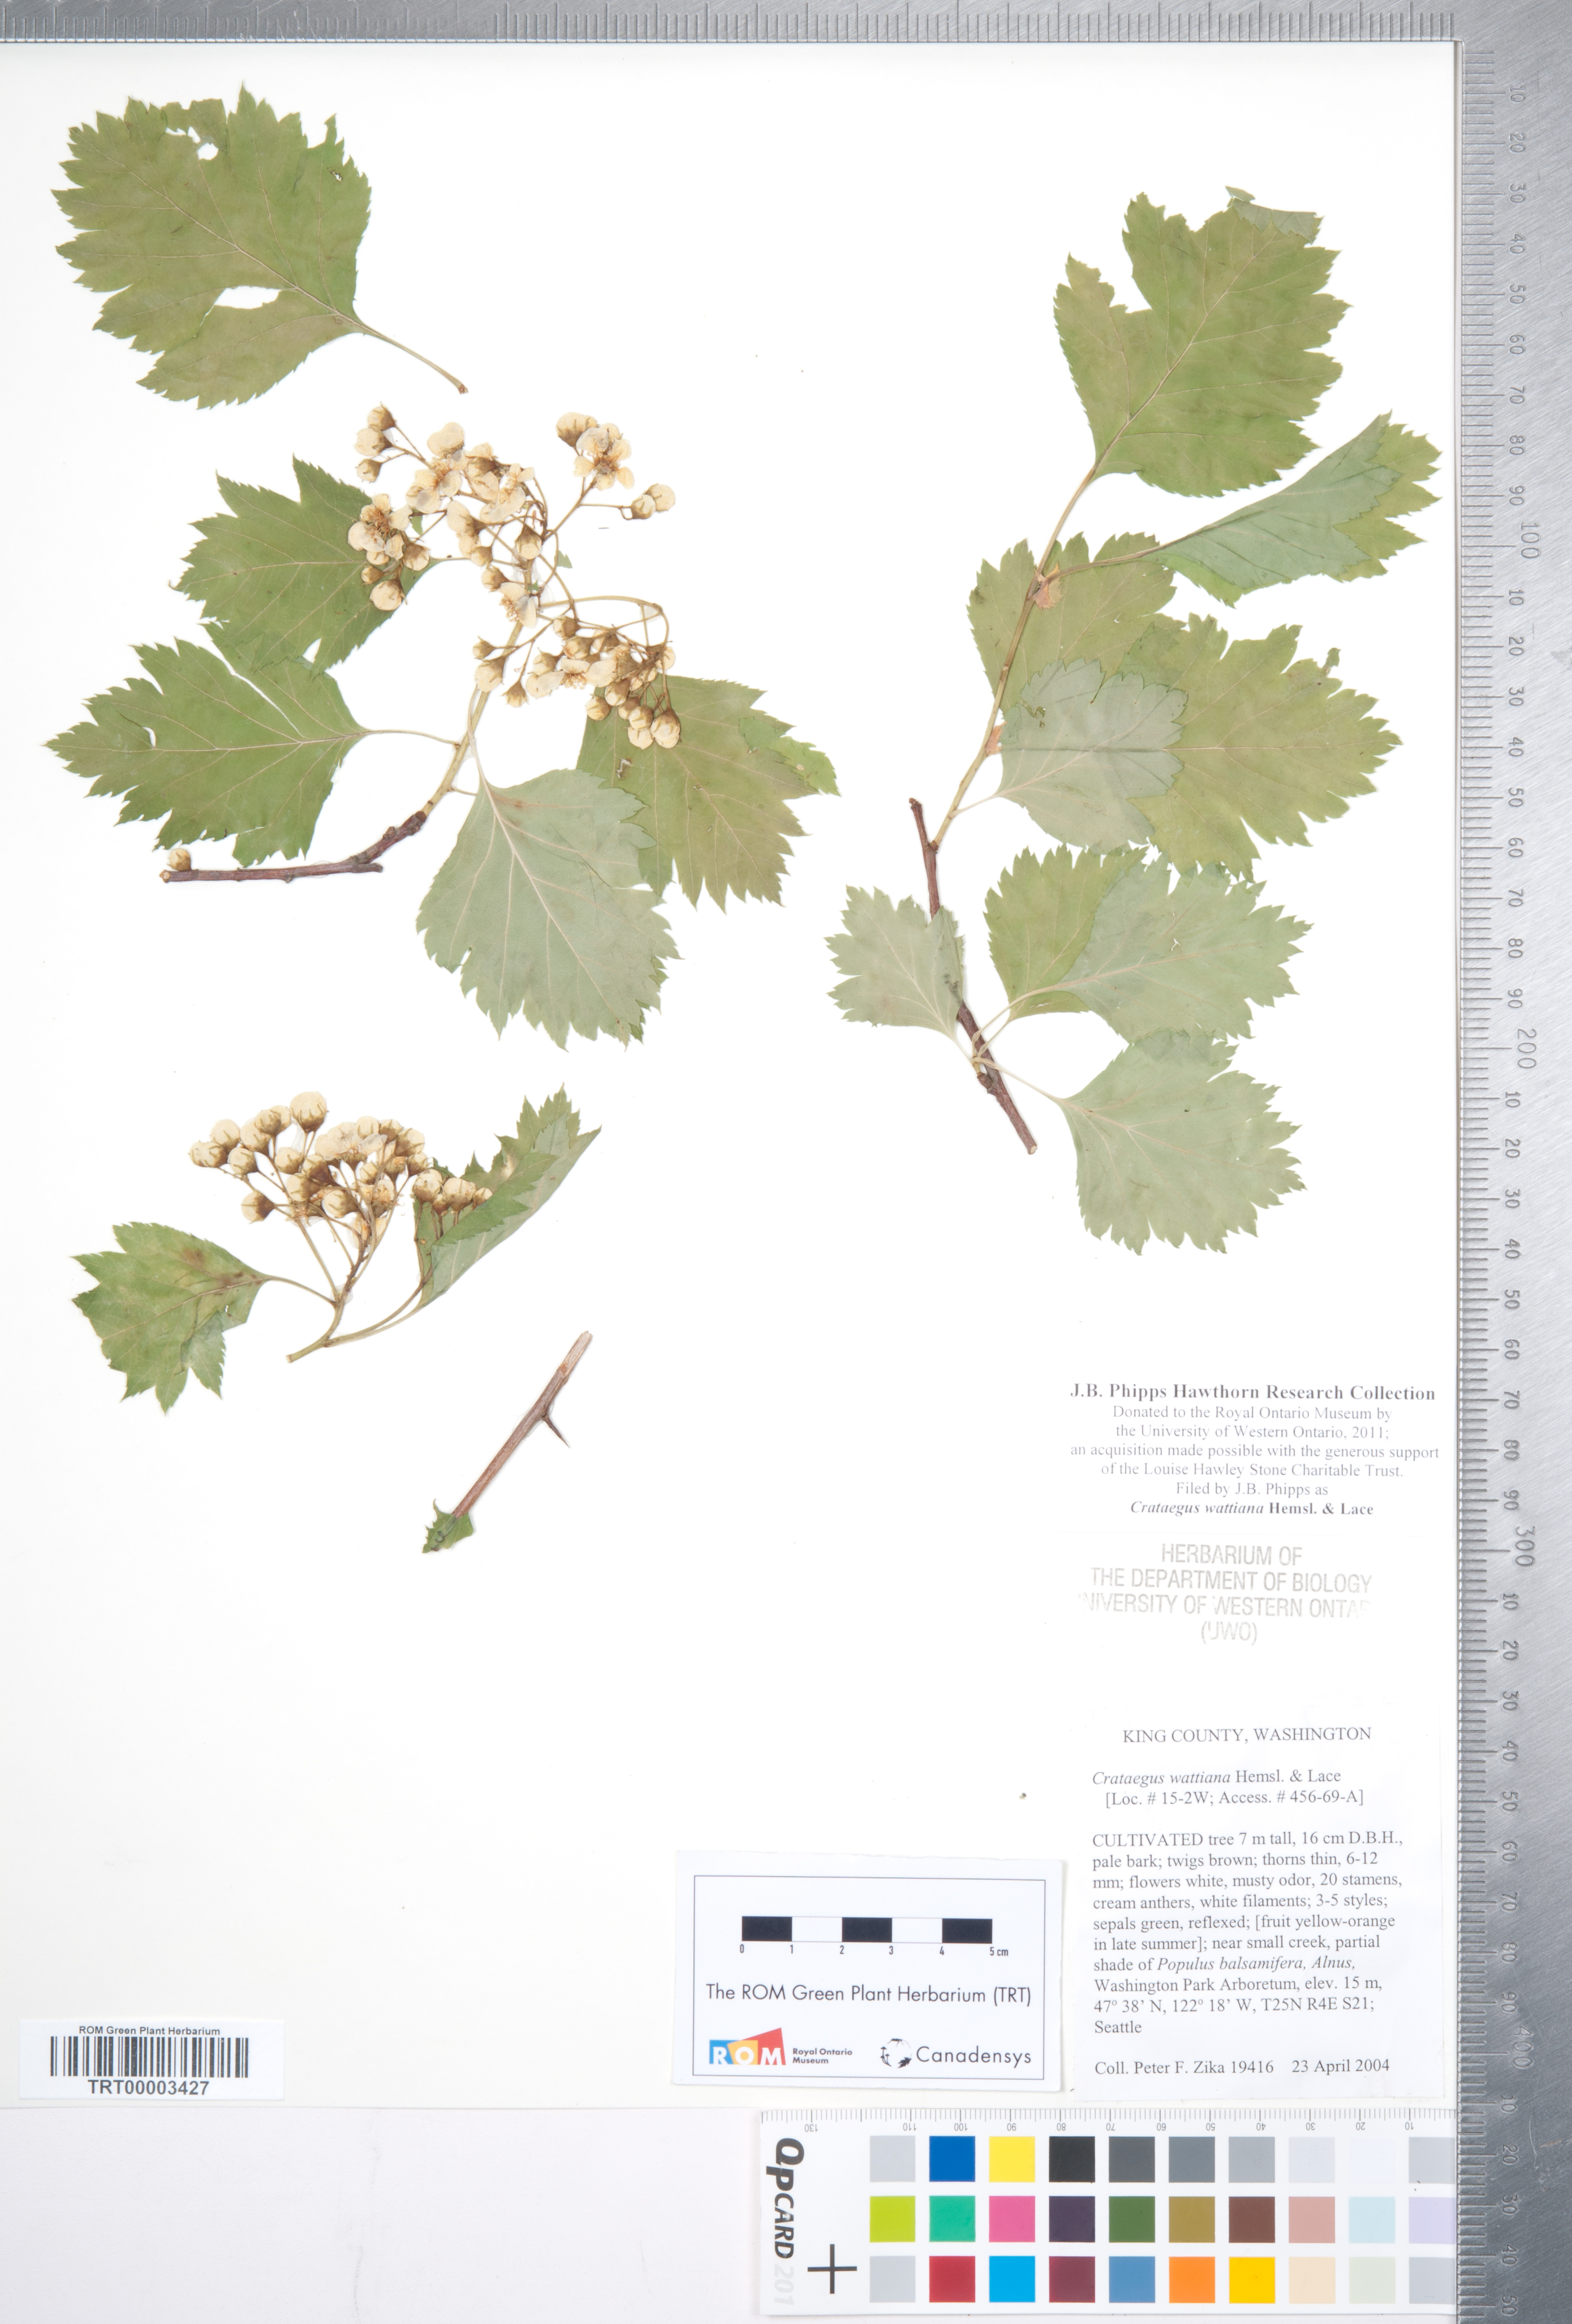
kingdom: Plantae
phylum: Tracheophyta
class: Magnoliopsida
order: Rosales
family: Rosaceae
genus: Crataegus
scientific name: Crataegus chlorocarpa
